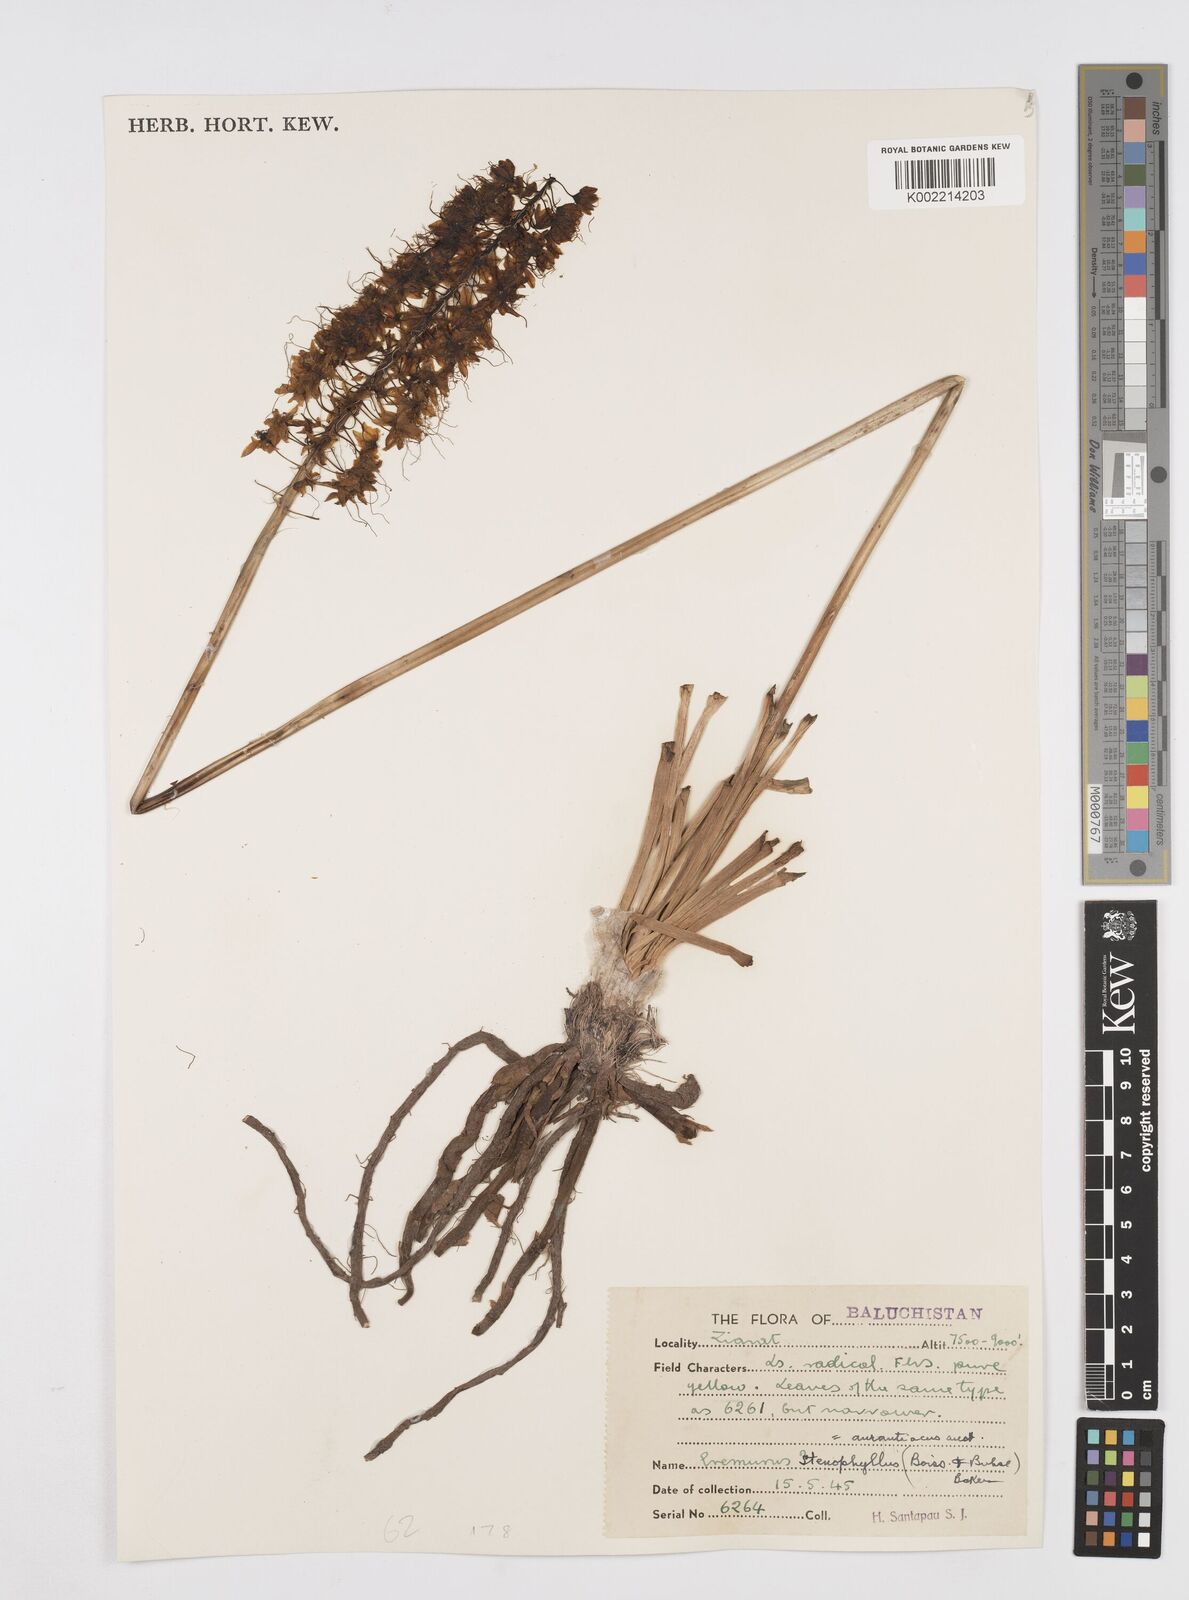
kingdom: Plantae
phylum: Tracheophyta
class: Liliopsida
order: Asparagales
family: Asphodelaceae
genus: Eremurus
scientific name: Eremurus stenophyllus
